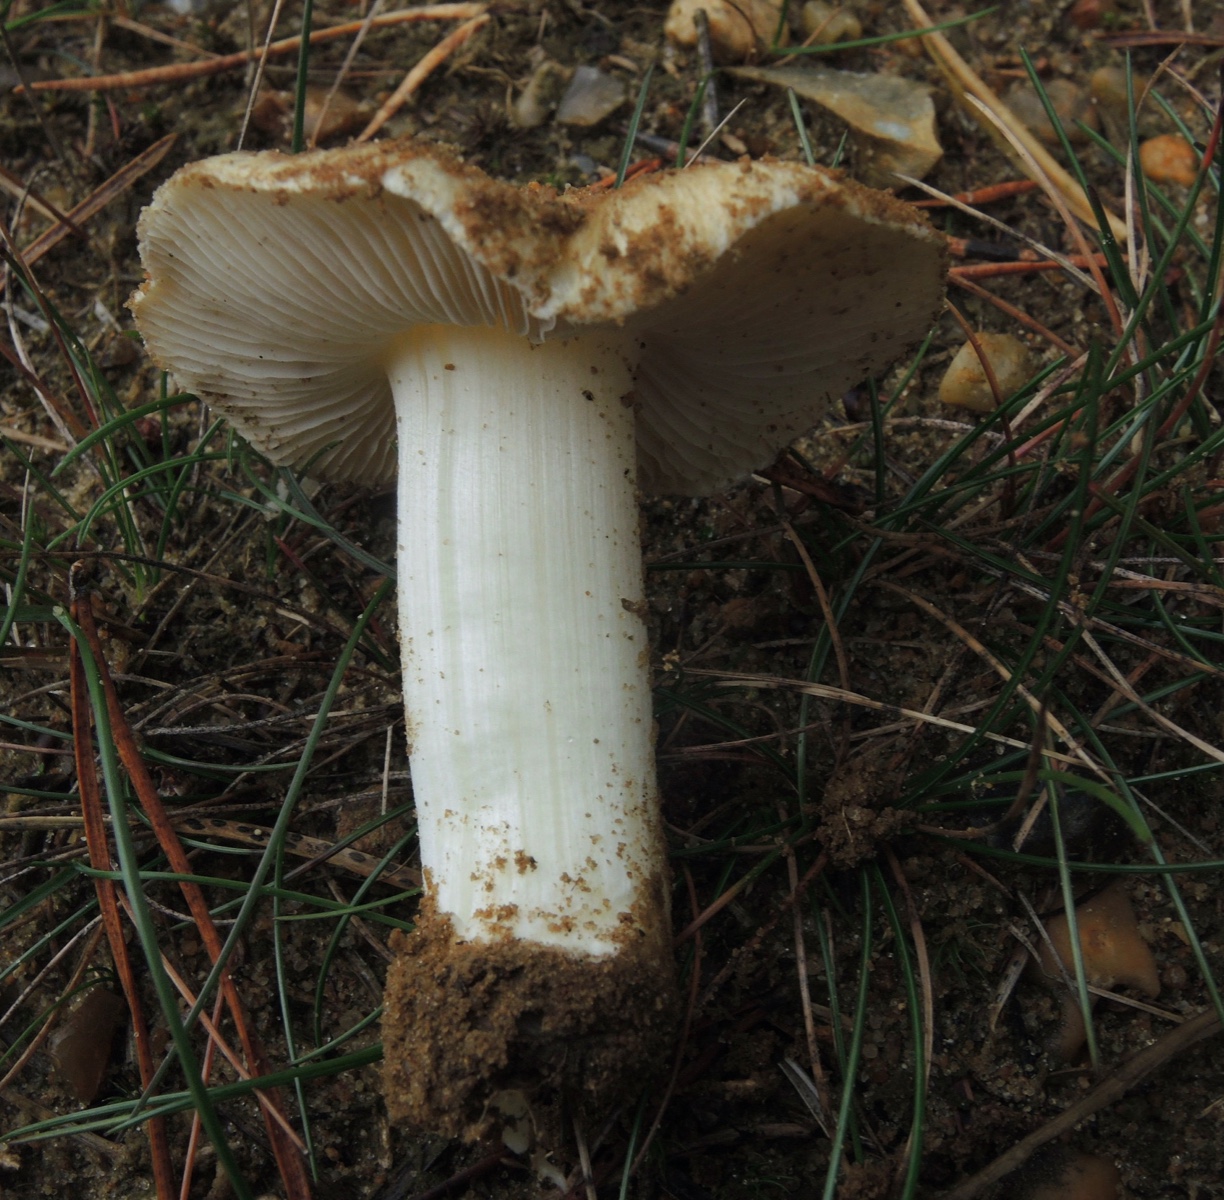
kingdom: Fungi
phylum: Basidiomycota
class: Agaricomycetes
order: Agaricales
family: Inocybaceae
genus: Inocybe
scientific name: Inocybe sambucina
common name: hyldehvid trævlhat
